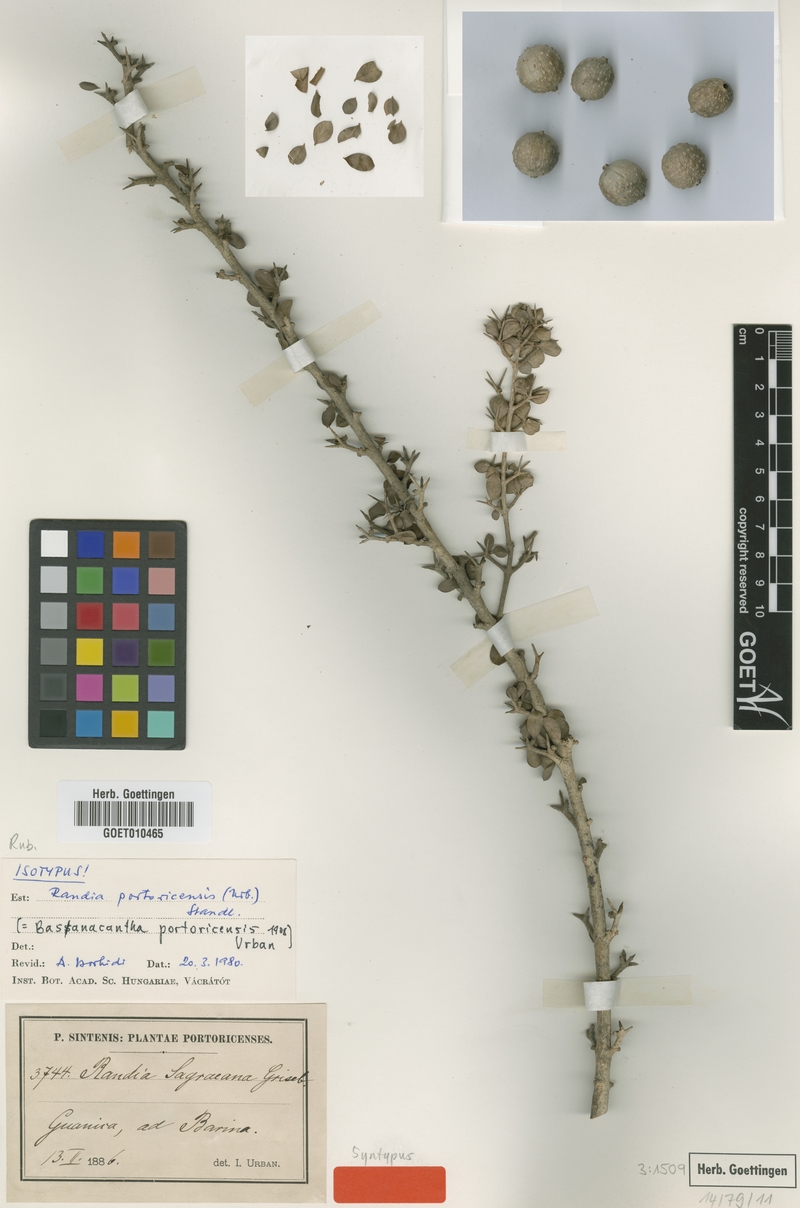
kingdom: Plantae
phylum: Tracheophyta
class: Magnoliopsida
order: Gentianales
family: Rubiaceae
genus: Randia
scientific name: Randia portoricensis
